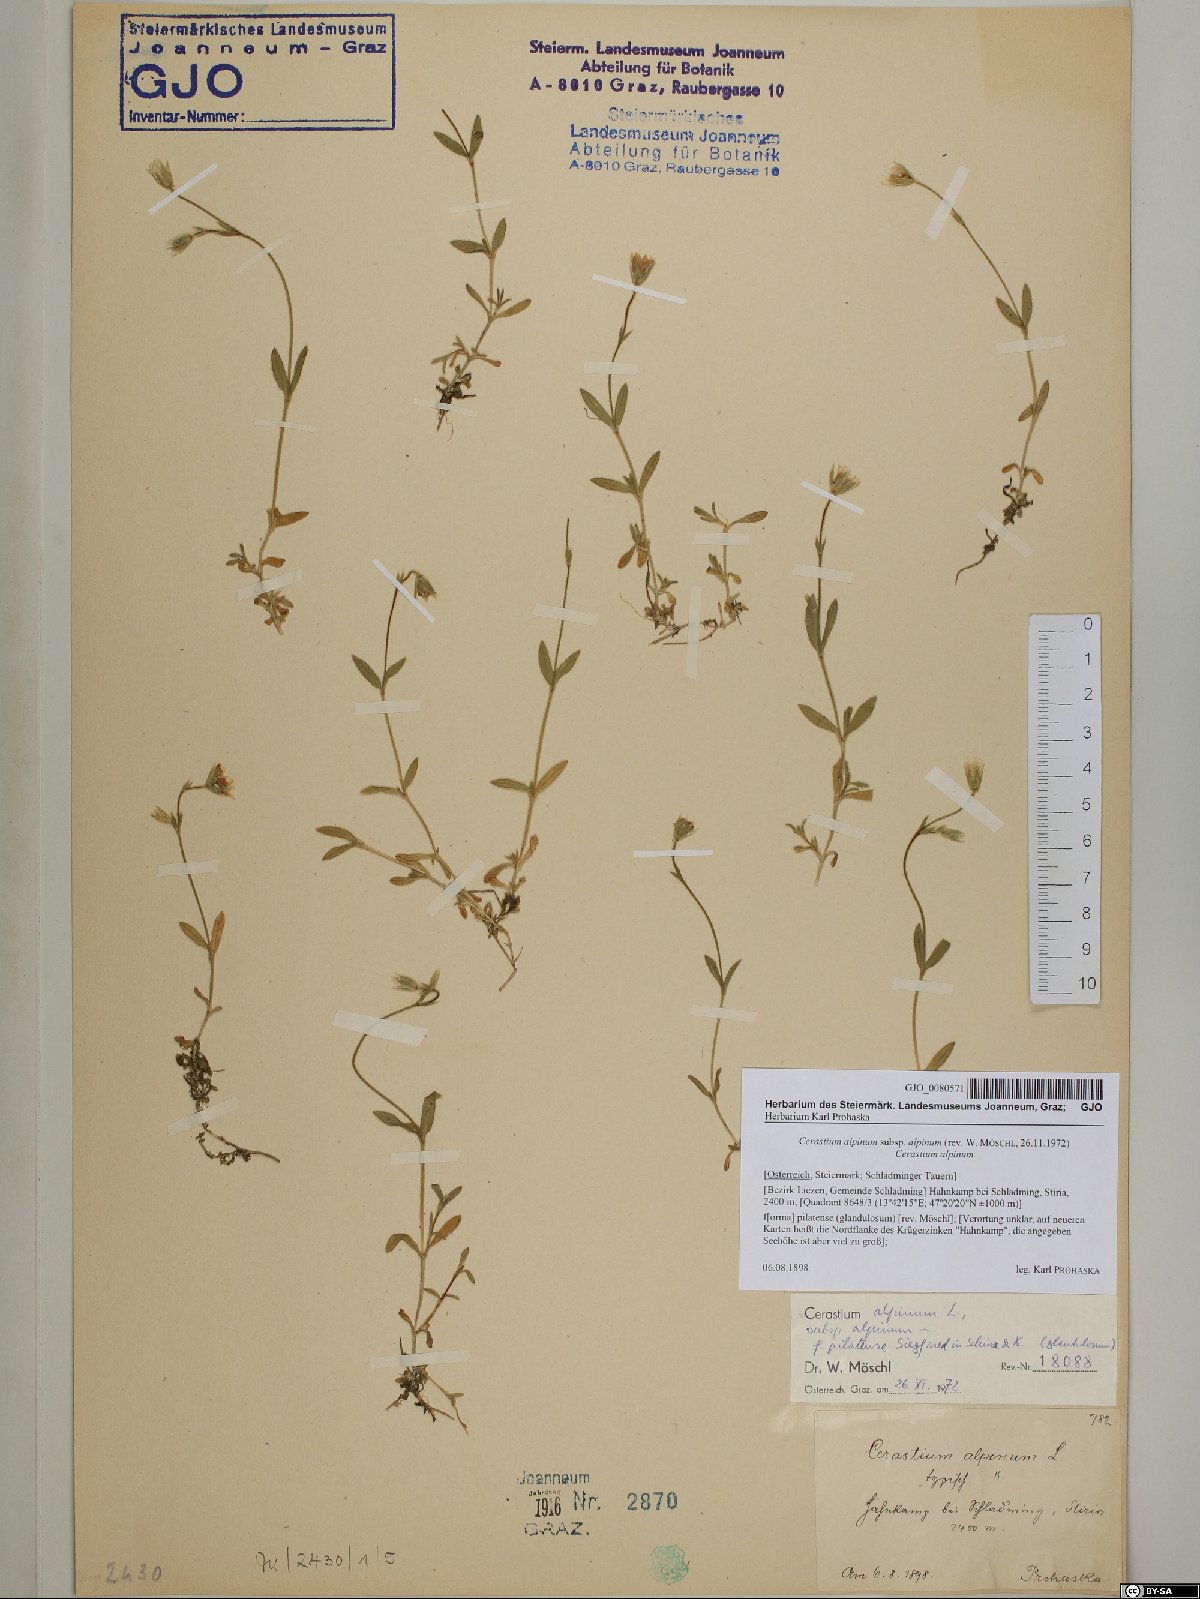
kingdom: Plantae
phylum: Tracheophyta
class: Magnoliopsida
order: Caryophyllales
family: Caryophyllaceae
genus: Cerastium
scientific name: Cerastium alpinum
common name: Alpine mouse-ear
